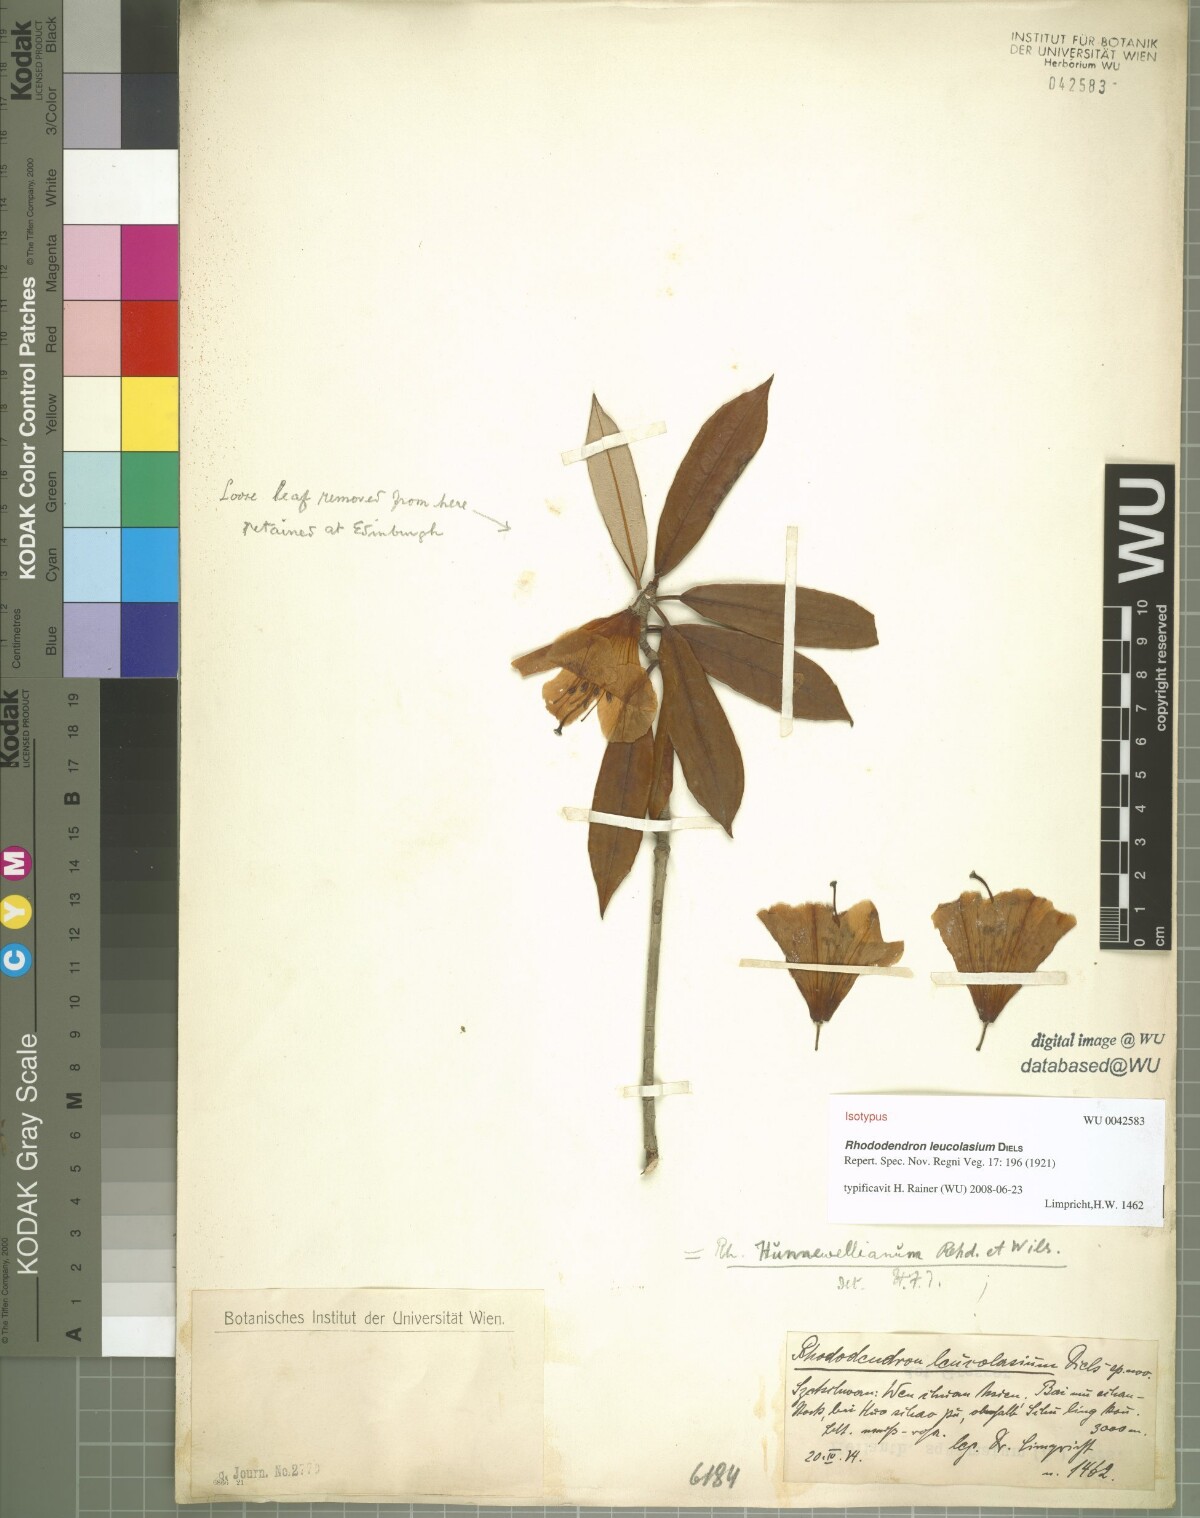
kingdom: Plantae
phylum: Tracheophyta
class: Magnoliopsida
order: Ericales
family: Ericaceae
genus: Rhododendron
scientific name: Rhododendron hunnewellianum
